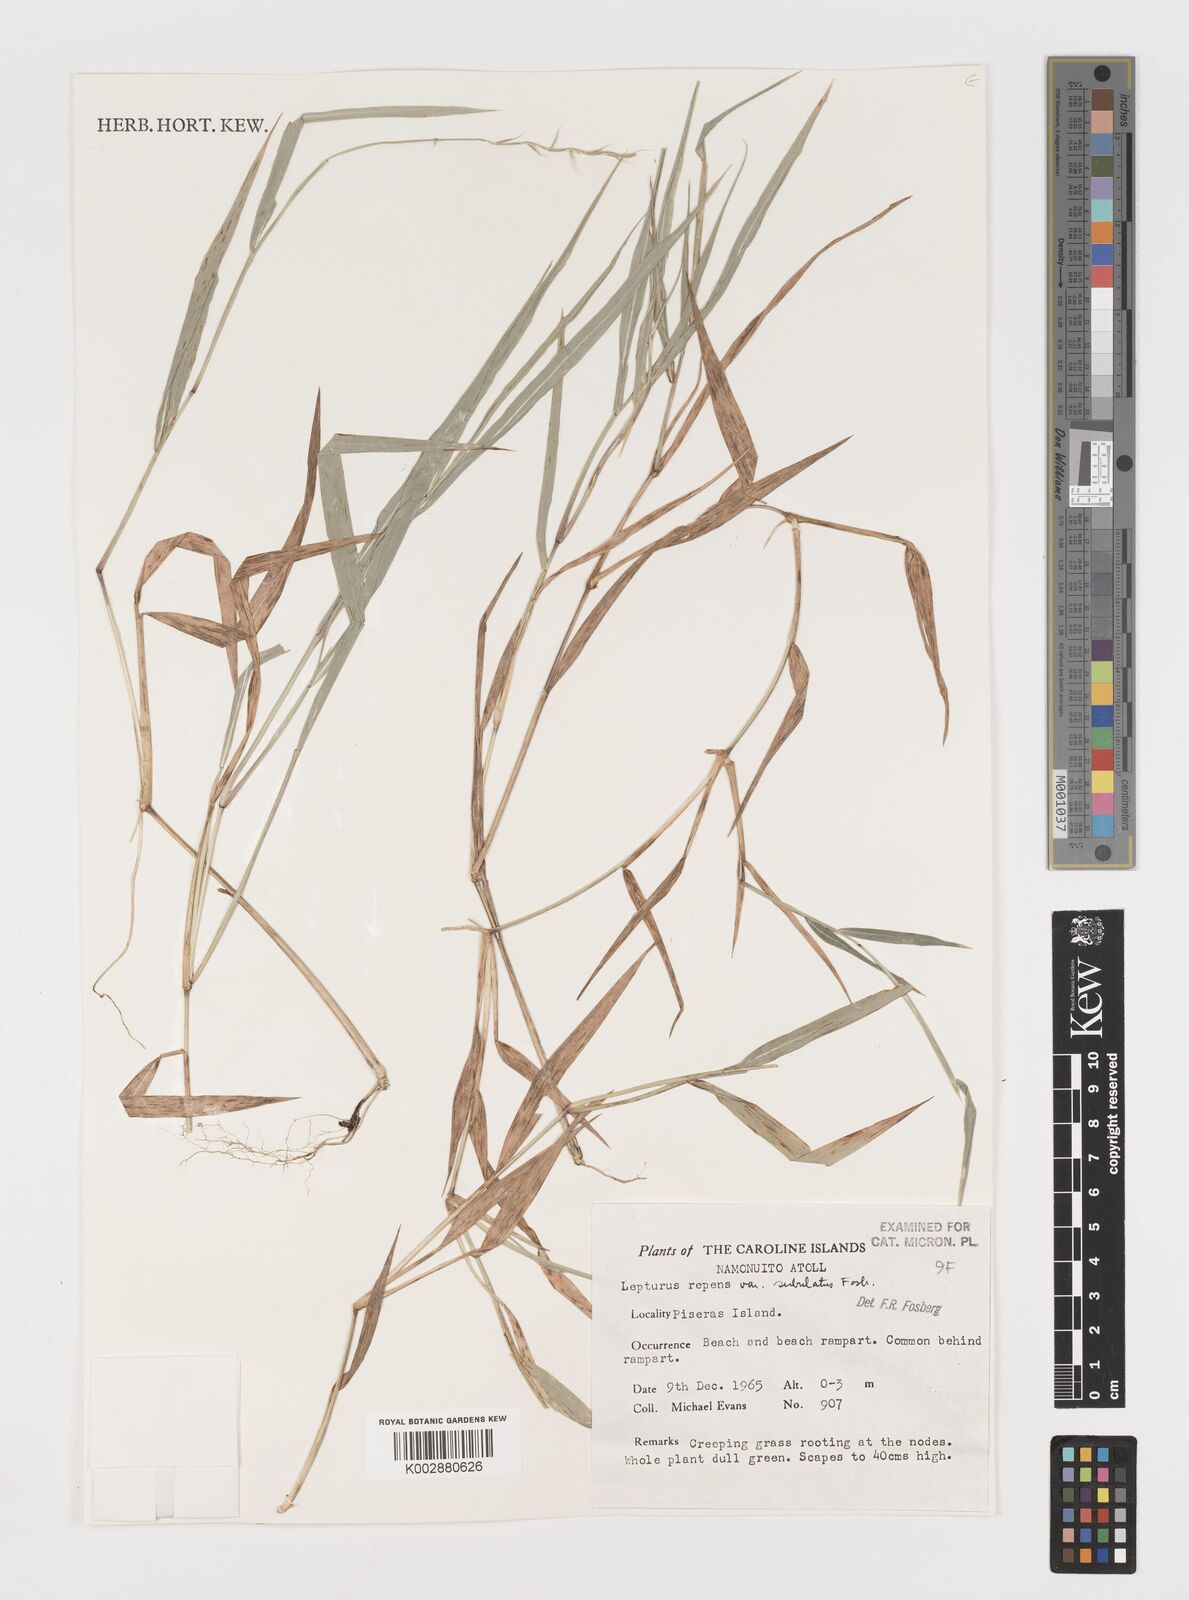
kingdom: Plantae
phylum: Tracheophyta
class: Liliopsida
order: Poales
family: Poaceae
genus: Lepturus
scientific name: Lepturus repens
